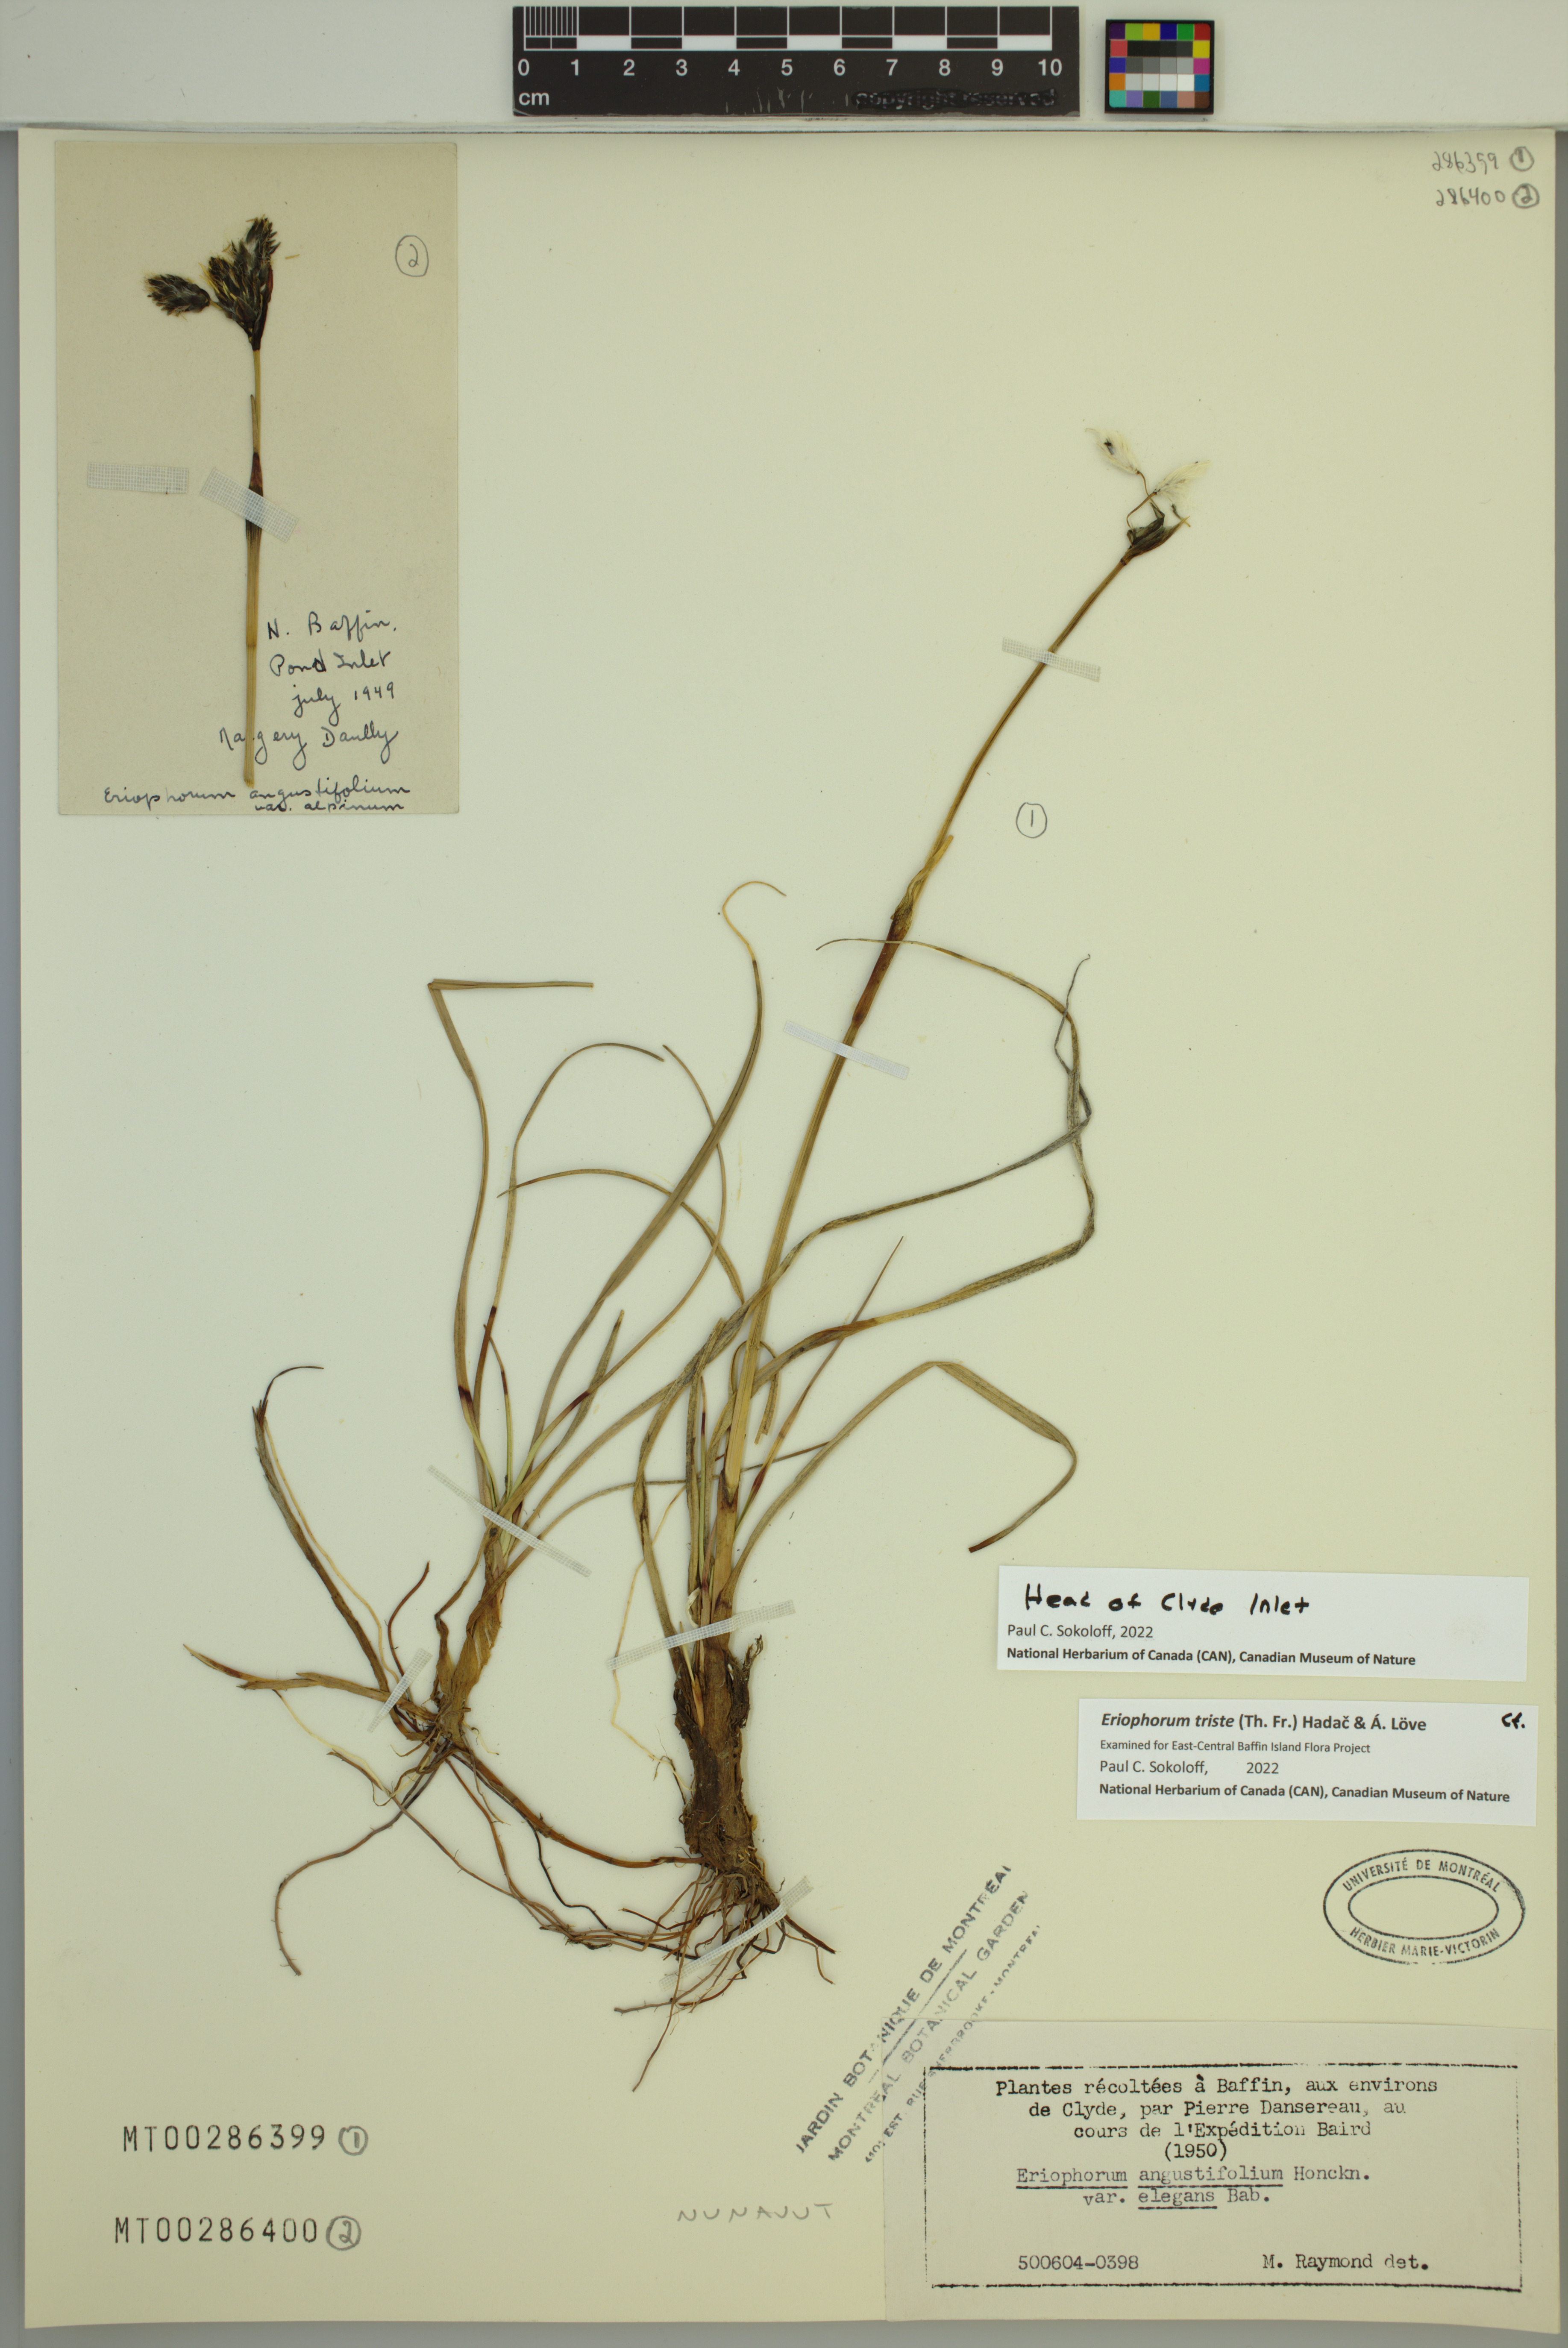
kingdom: Plantae
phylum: Tracheophyta
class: Liliopsida
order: Poales
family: Cyperaceae
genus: Eriophorum
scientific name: Eriophorum triste
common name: Tall cottongrass
